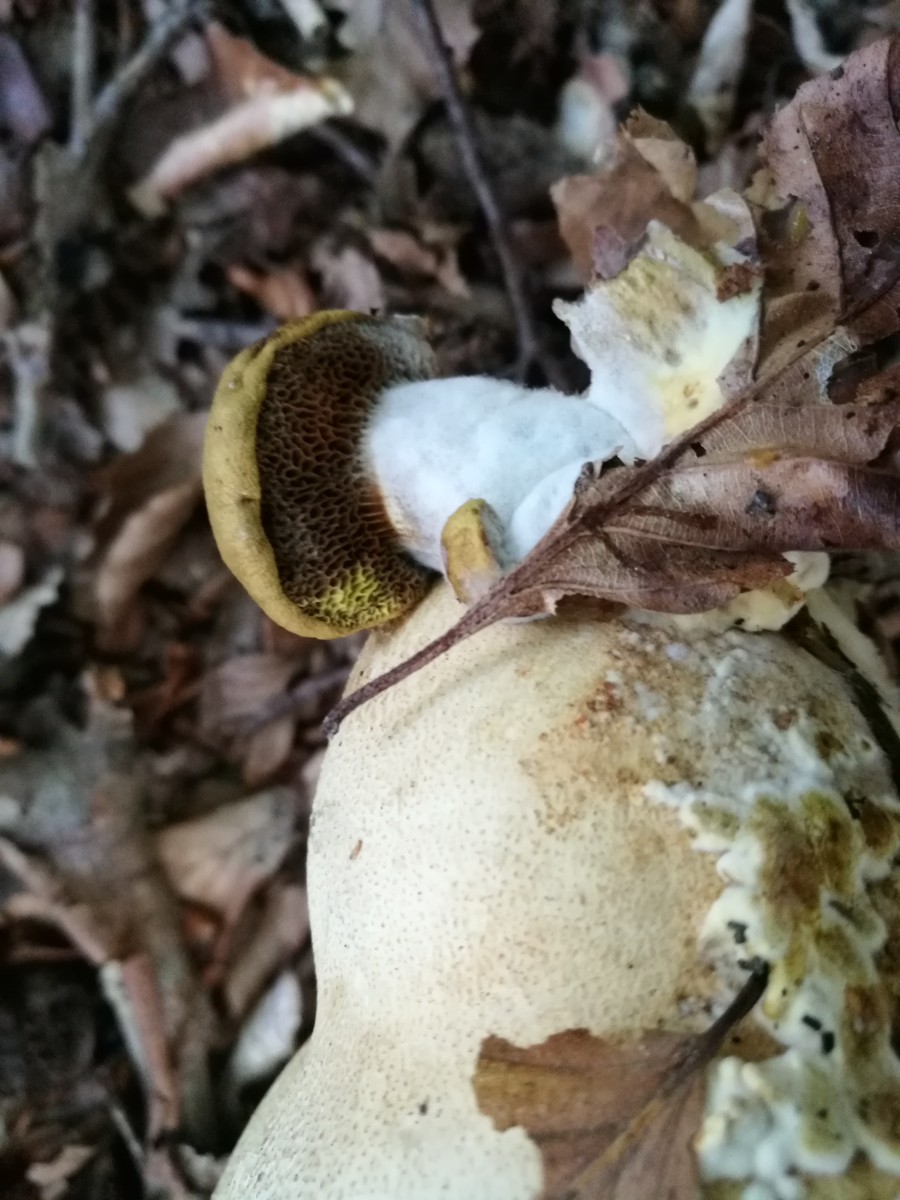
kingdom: Fungi
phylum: Basidiomycota
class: Agaricomycetes
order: Boletales
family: Boletaceae
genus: Pseudoboletus
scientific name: Pseudoboletus parasiticus
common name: snyltende rørhat
